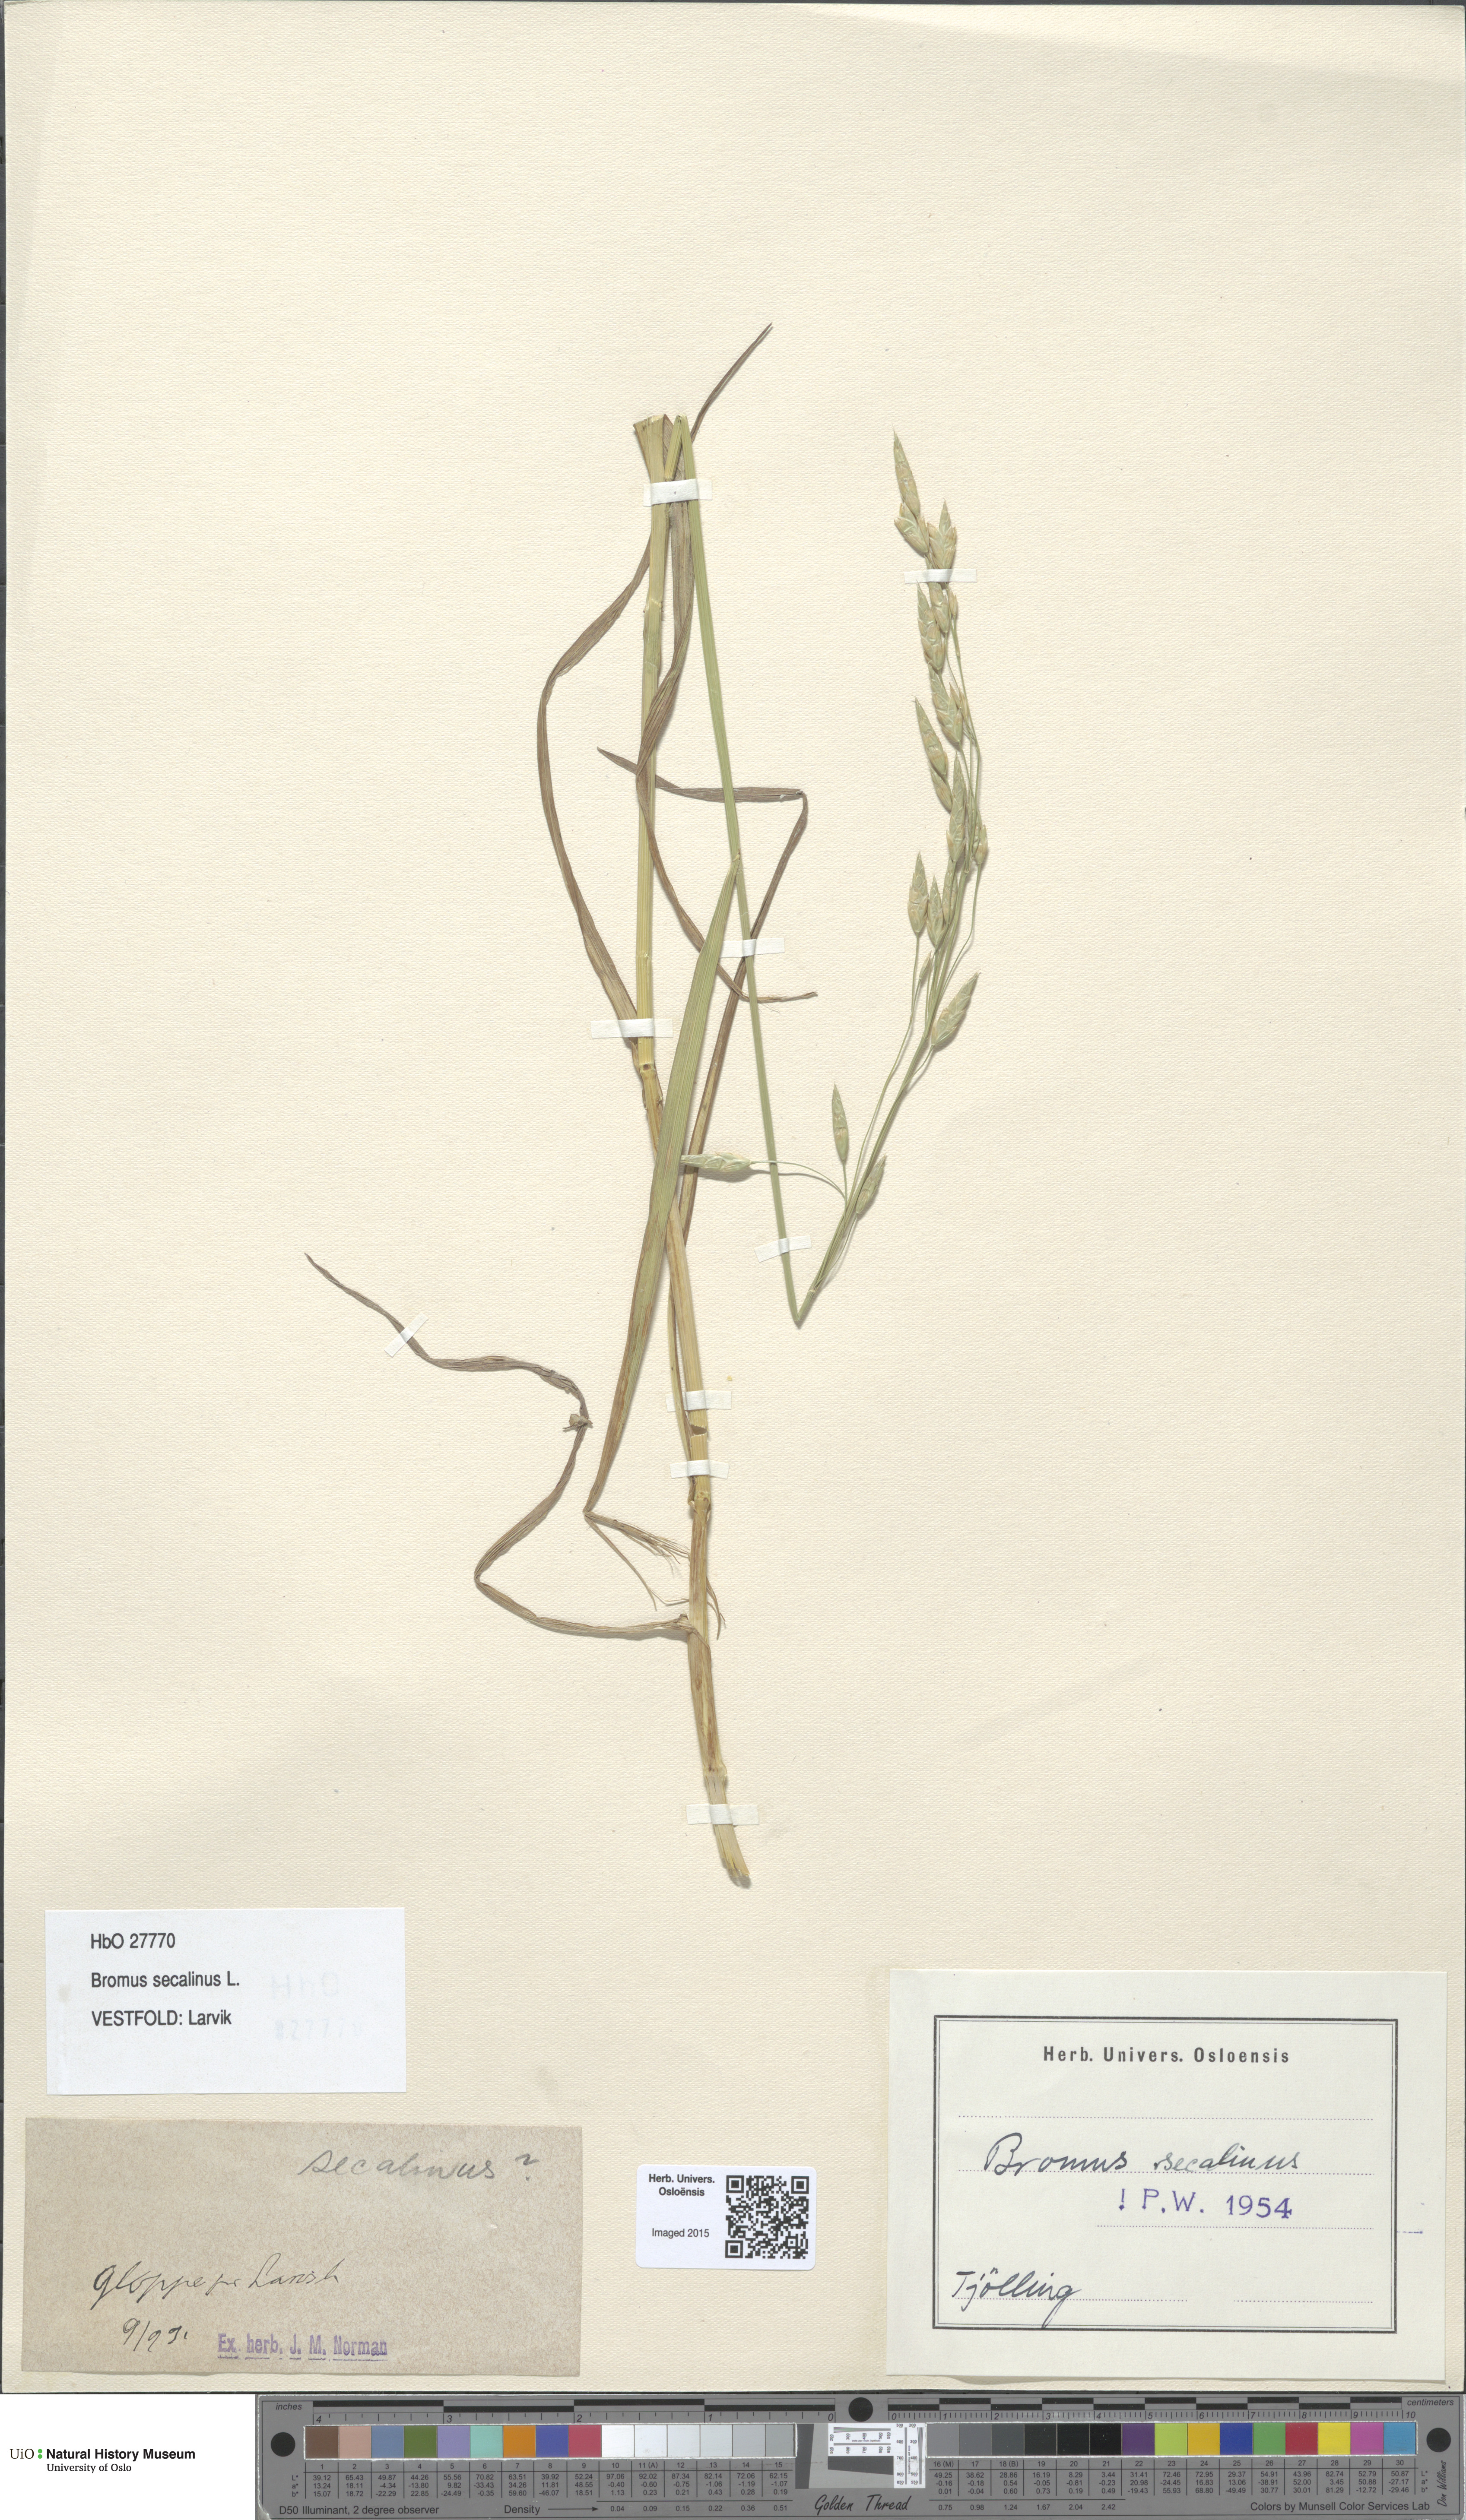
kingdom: Plantae
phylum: Tracheophyta
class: Liliopsida
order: Poales
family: Poaceae
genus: Bromus
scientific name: Bromus secalinus
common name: Rye brome
